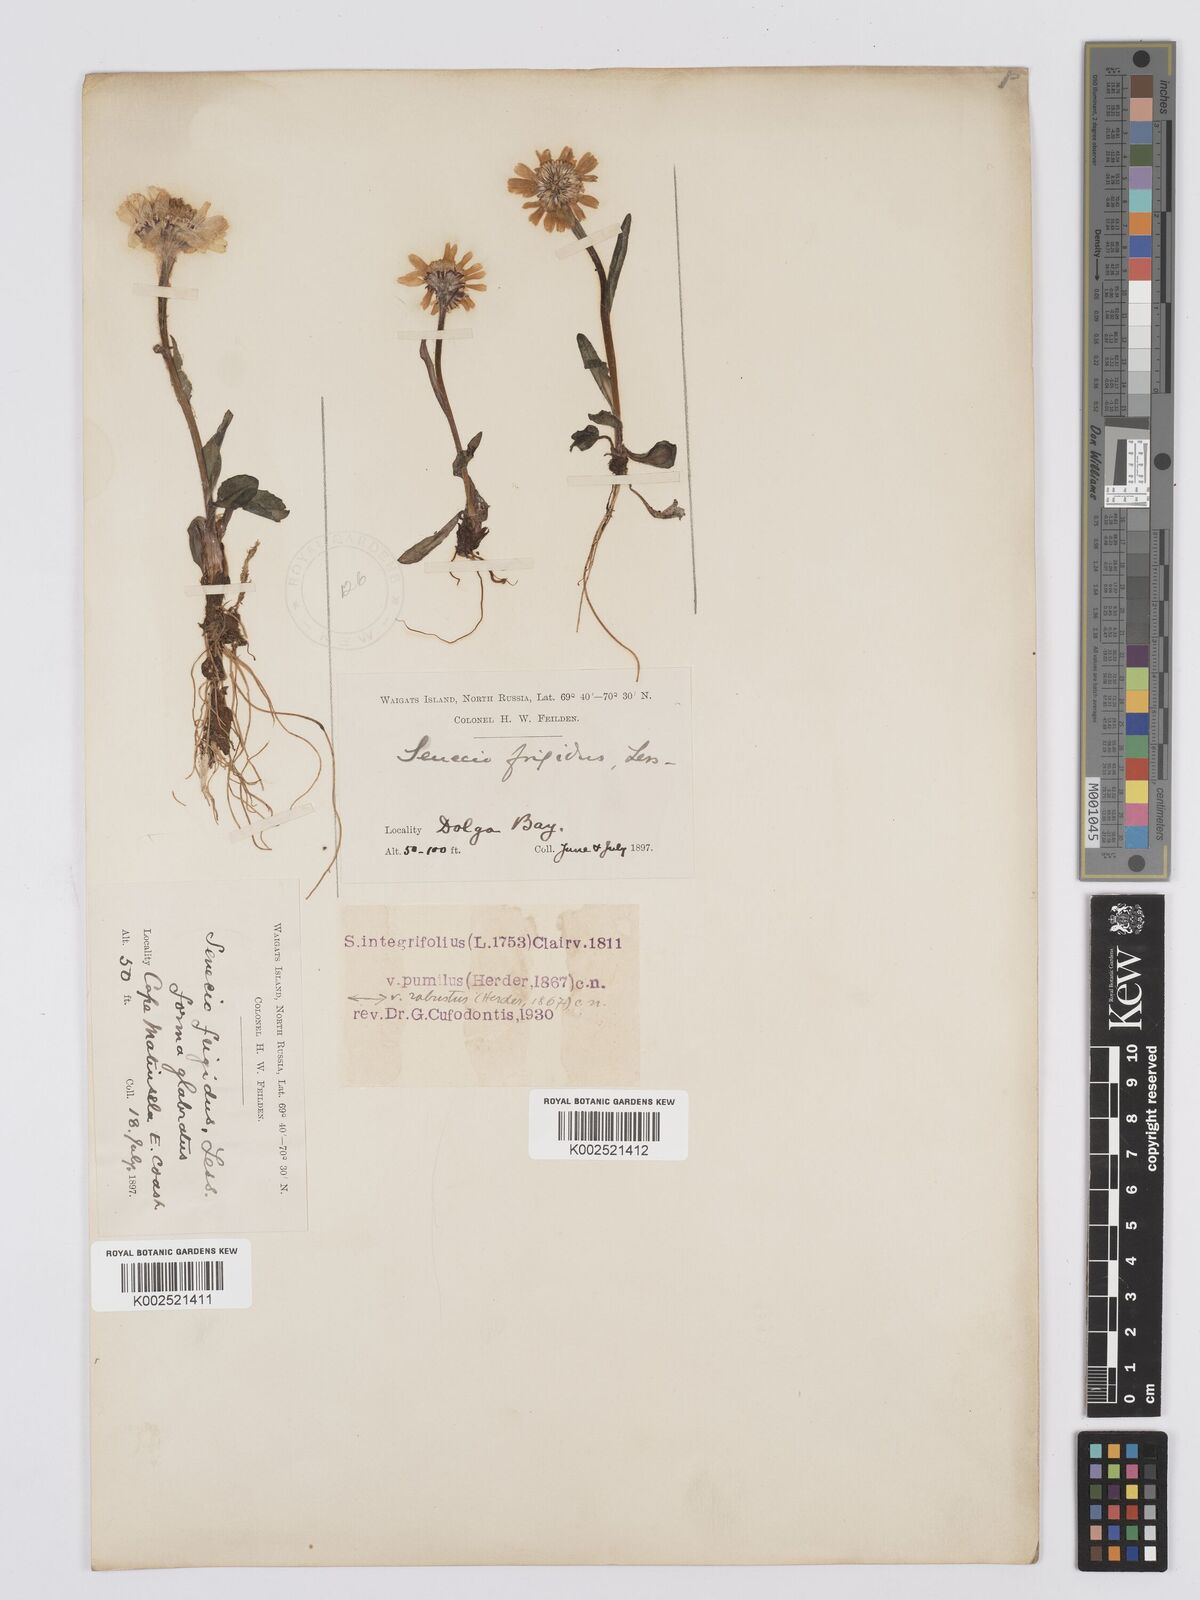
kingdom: Plantae
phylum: Tracheophyta
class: Magnoliopsida
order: Asterales
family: Asteraceae
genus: Tephroseris
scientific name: Tephroseris integrifolia
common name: Field fleawort
